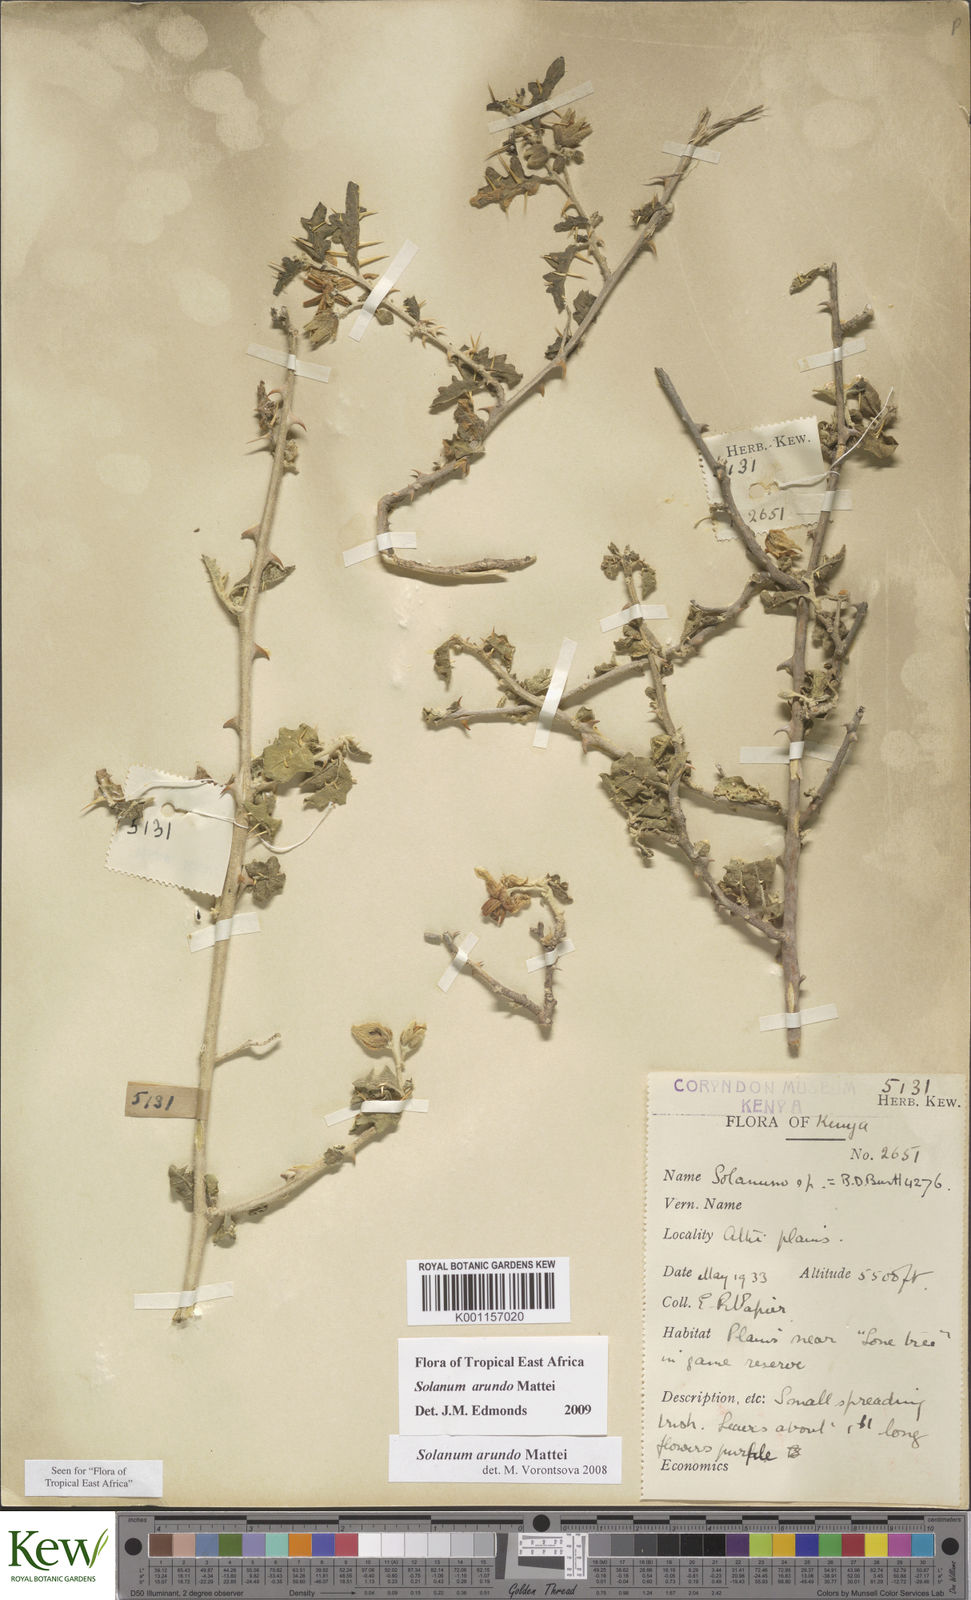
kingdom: Plantae
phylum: Tracheophyta
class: Magnoliopsida
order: Solanales
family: Solanaceae
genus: Solanum
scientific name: Solanum arundo
